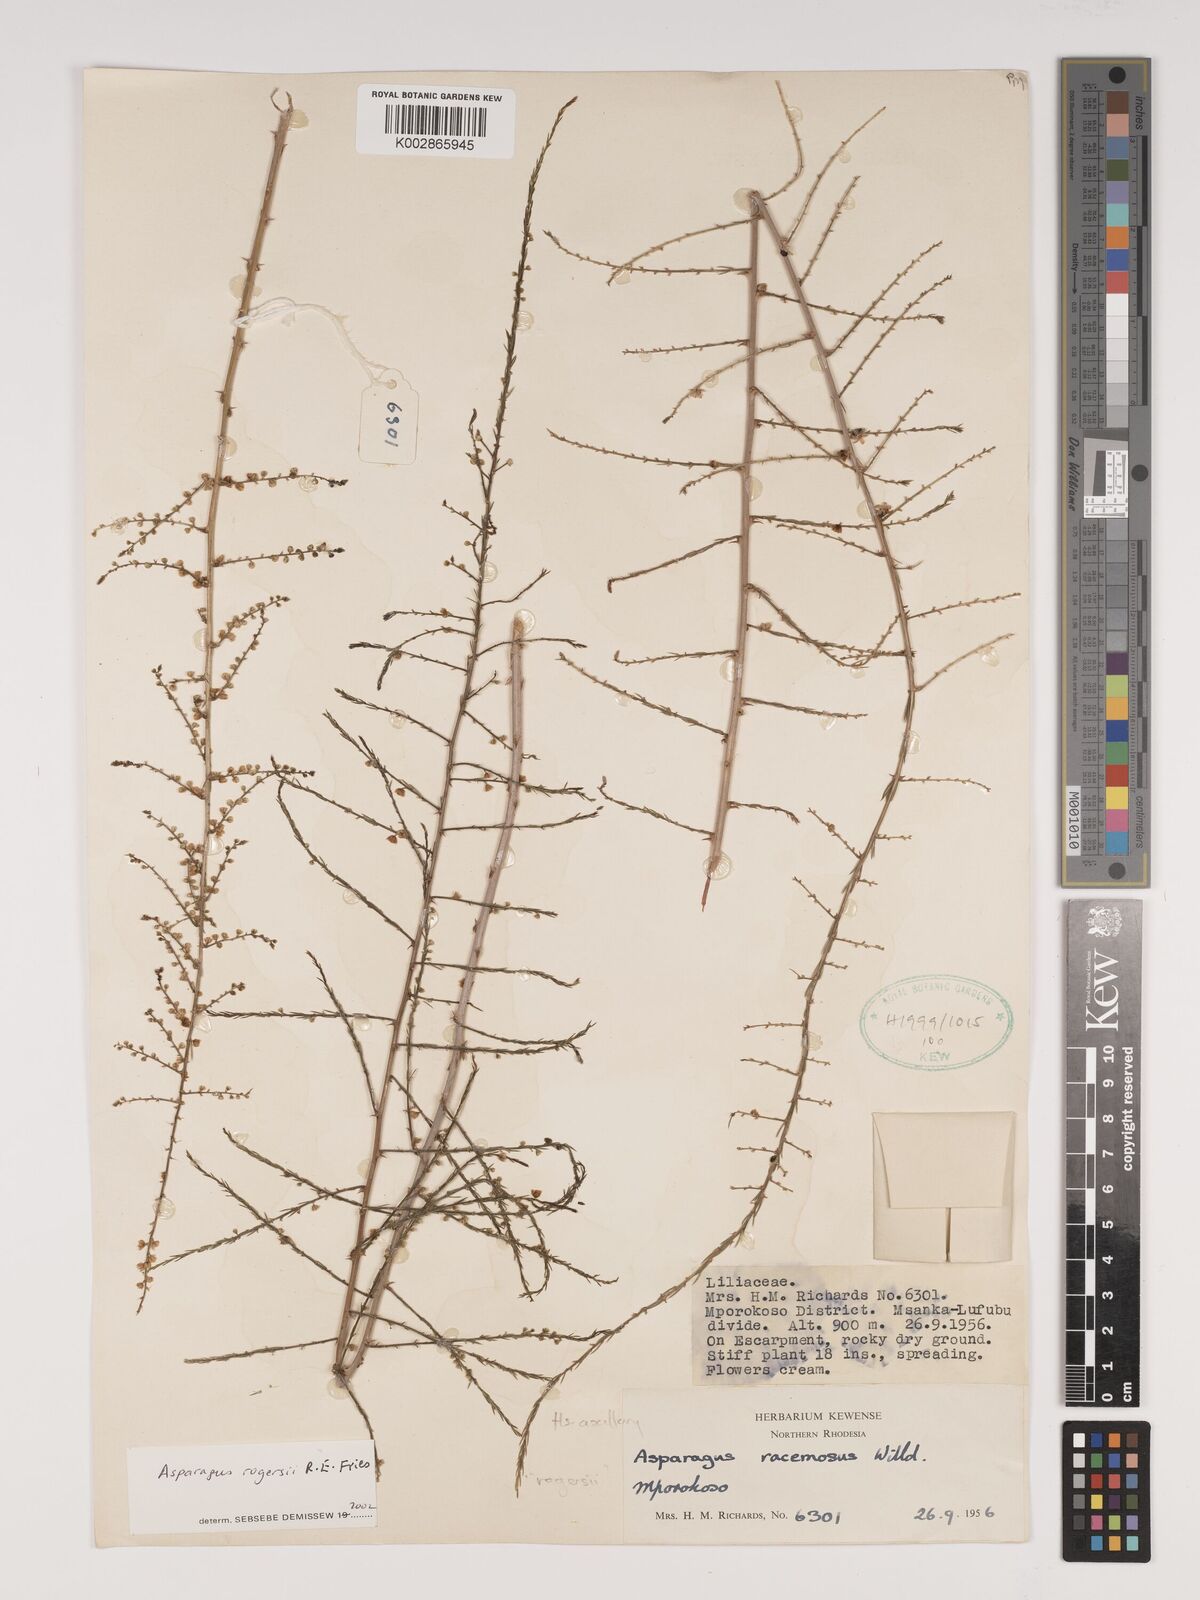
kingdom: Plantae
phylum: Tracheophyta
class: Liliopsida
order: Asparagales
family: Asparagaceae
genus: Asparagus
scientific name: Asparagus rogersii
